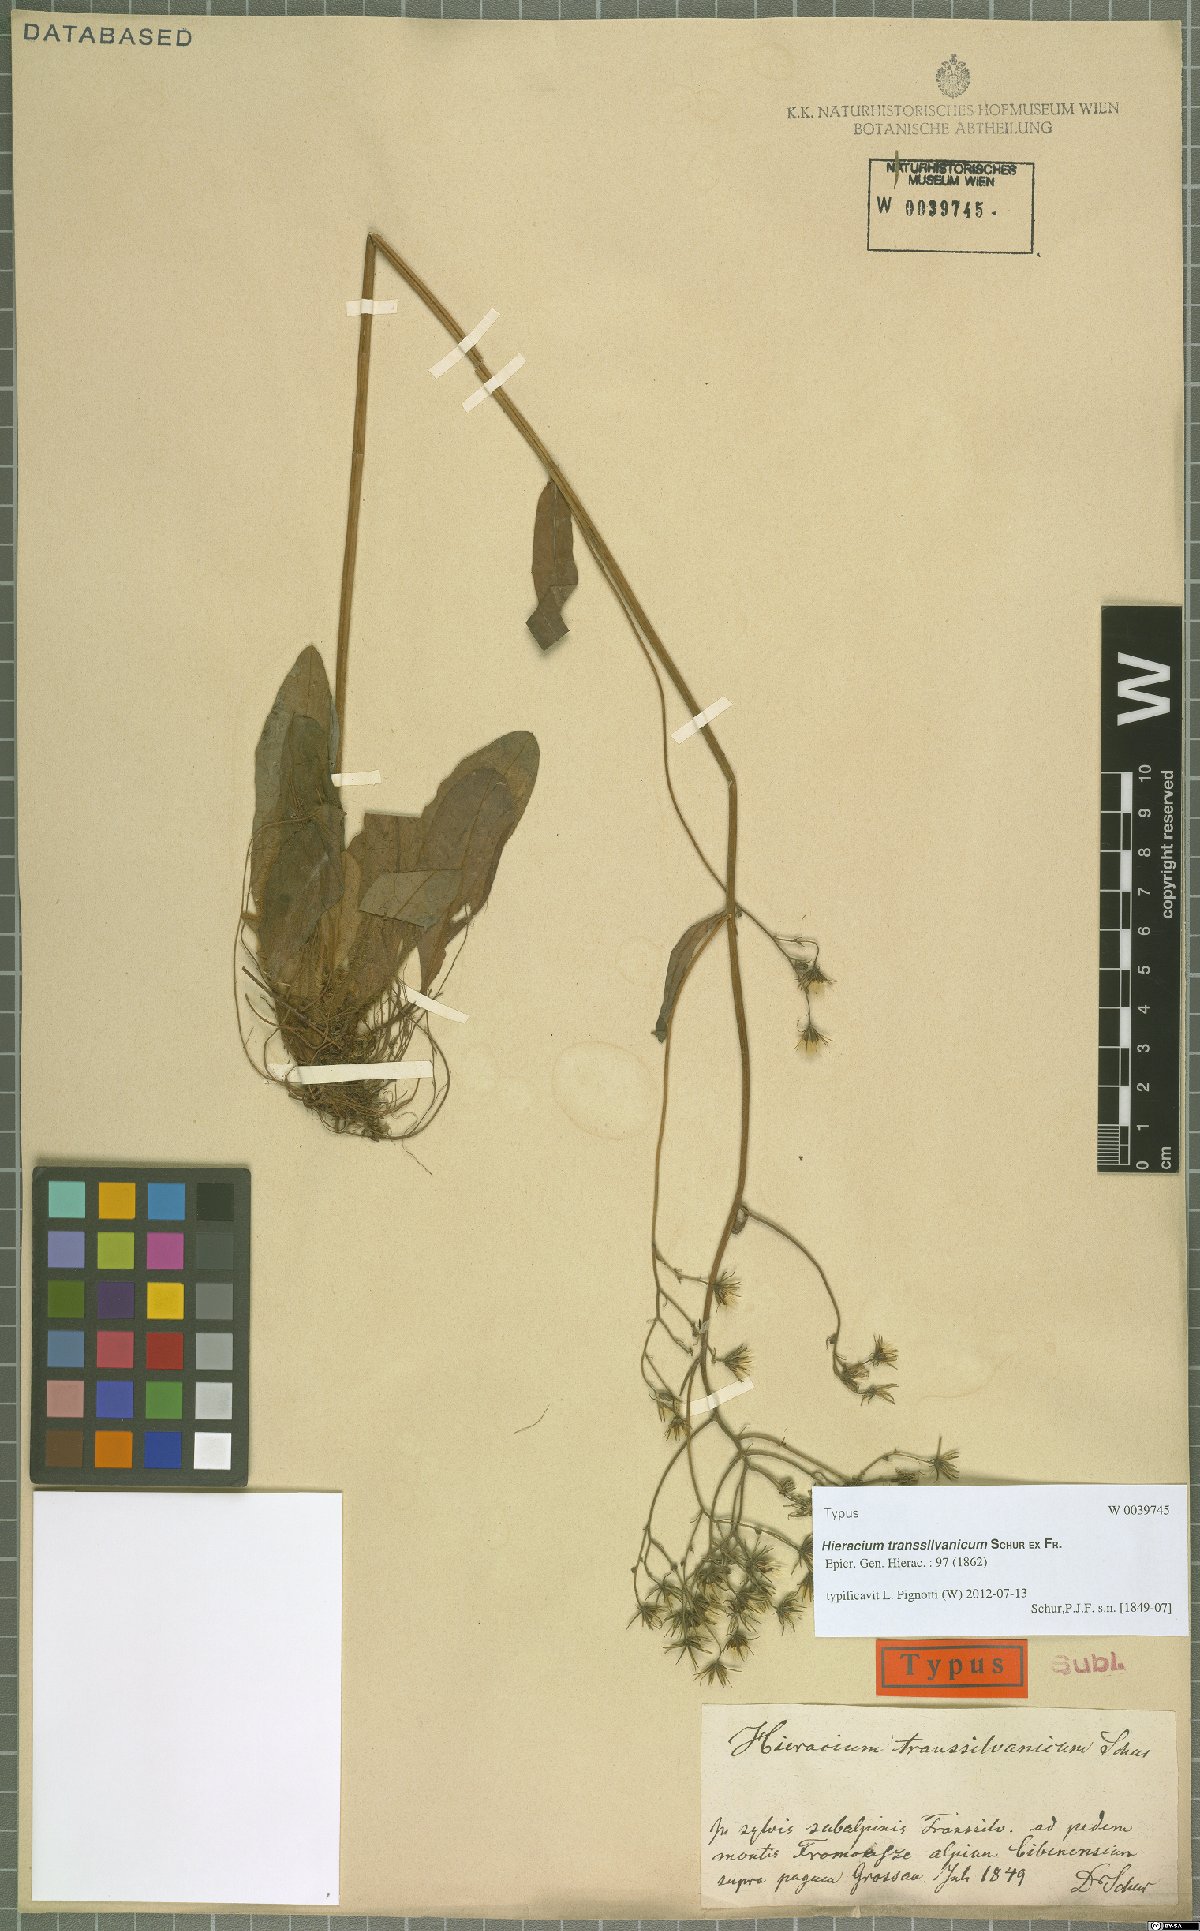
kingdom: Plantae
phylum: Tracheophyta
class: Magnoliopsida
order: Asterales
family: Asteraceae
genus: Hieracium
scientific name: Hieracium transylvanicum
